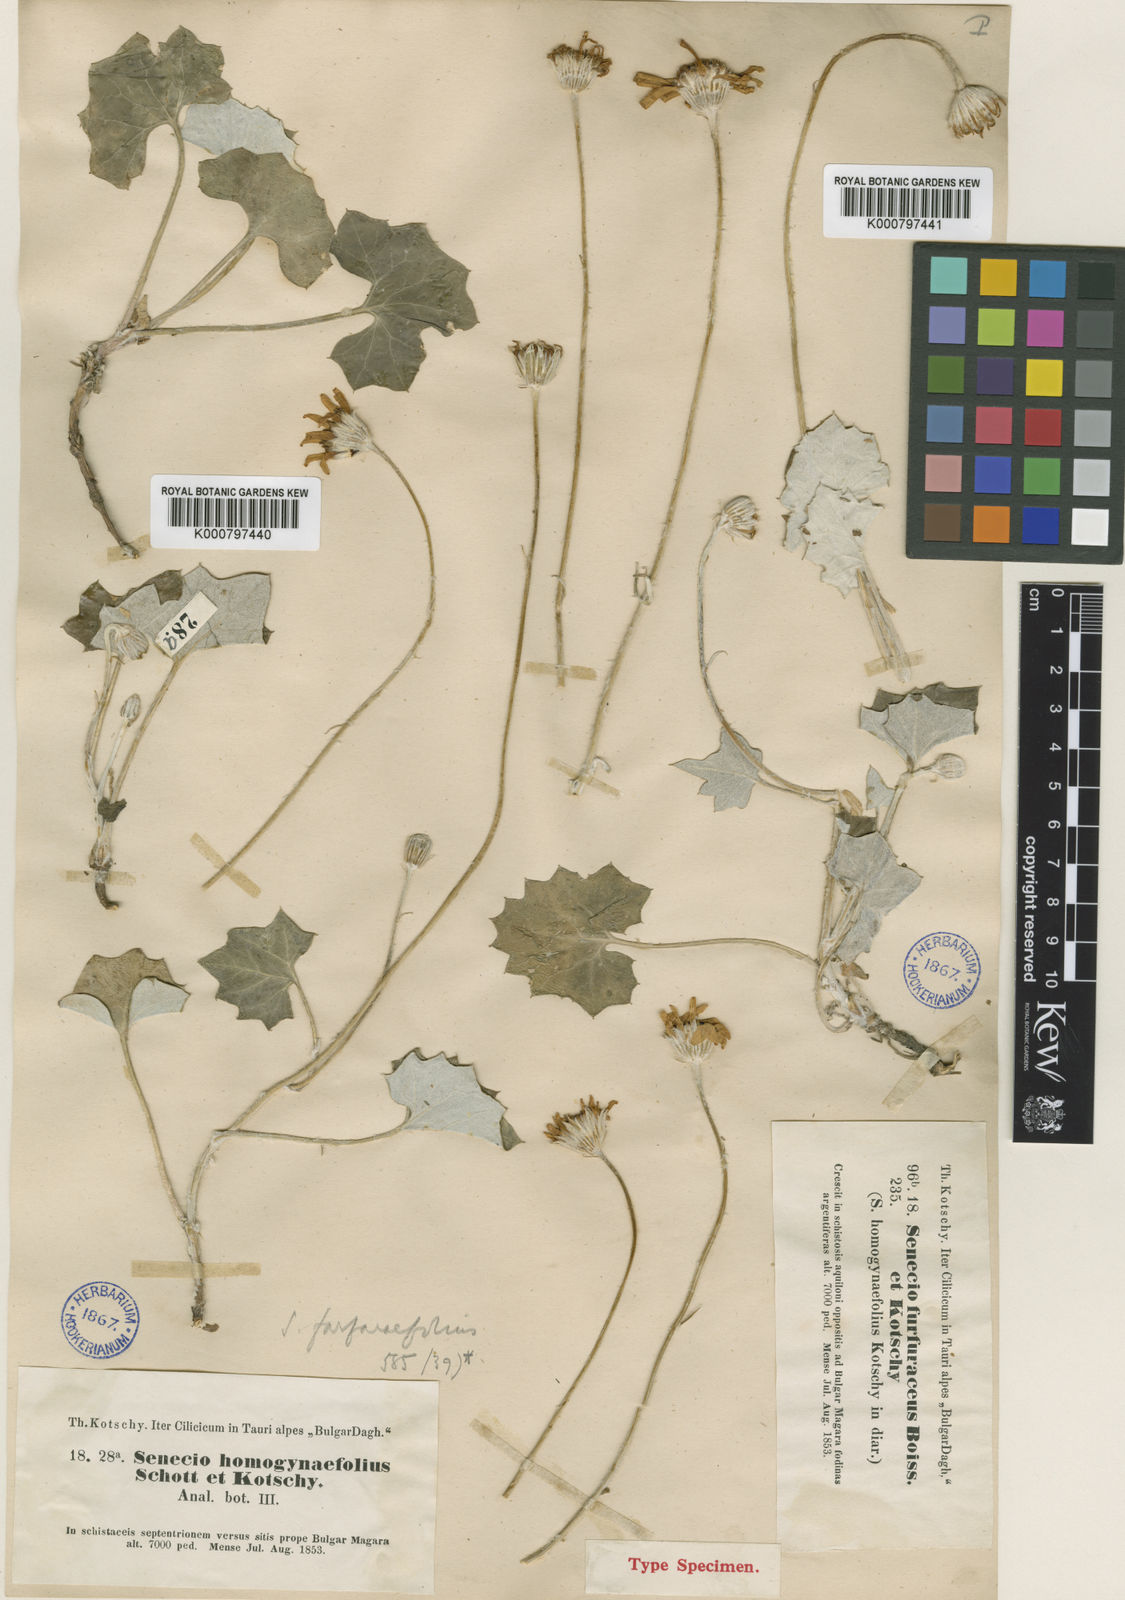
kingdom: Plantae
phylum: Tracheophyta
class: Magnoliopsida
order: Asterales
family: Asteraceae
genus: Turanecio
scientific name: Turanecio farfarifolius
